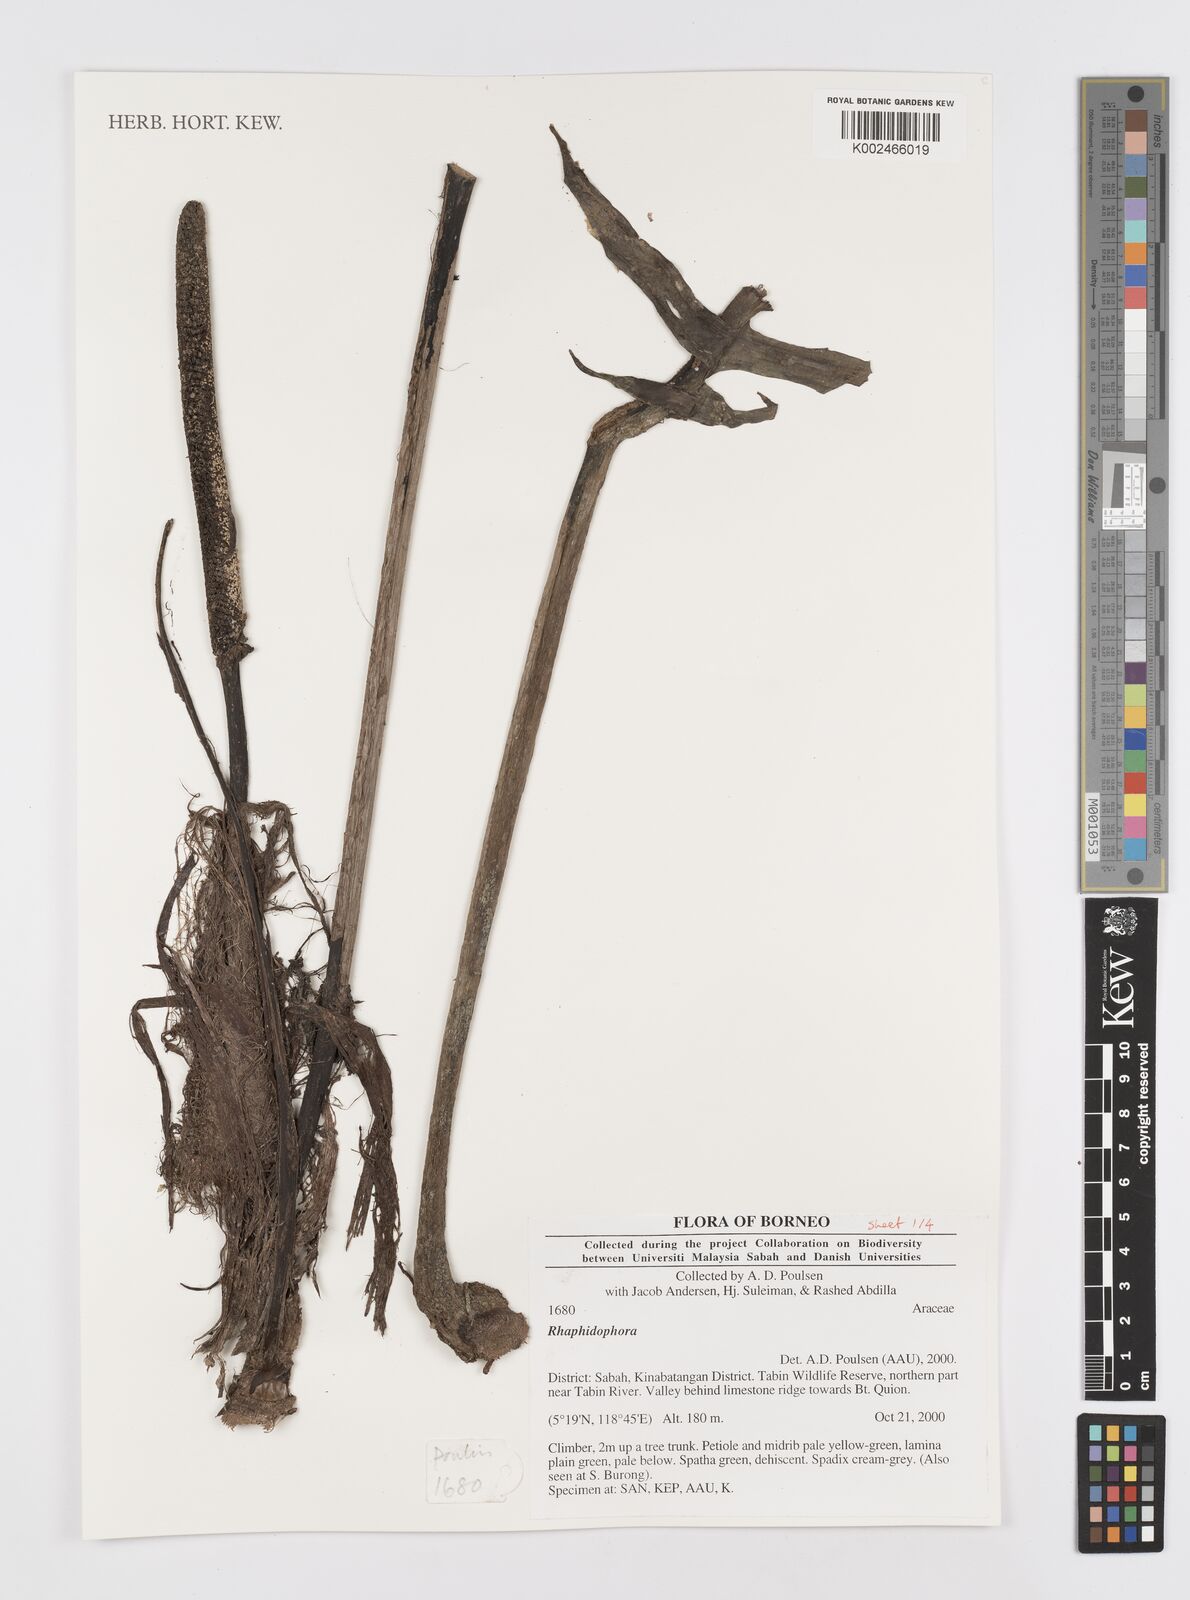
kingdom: Plantae
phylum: Tracheophyta
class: Liliopsida
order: Alismatales
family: Araceae
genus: Rhaphidophora
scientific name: Rhaphidophora
